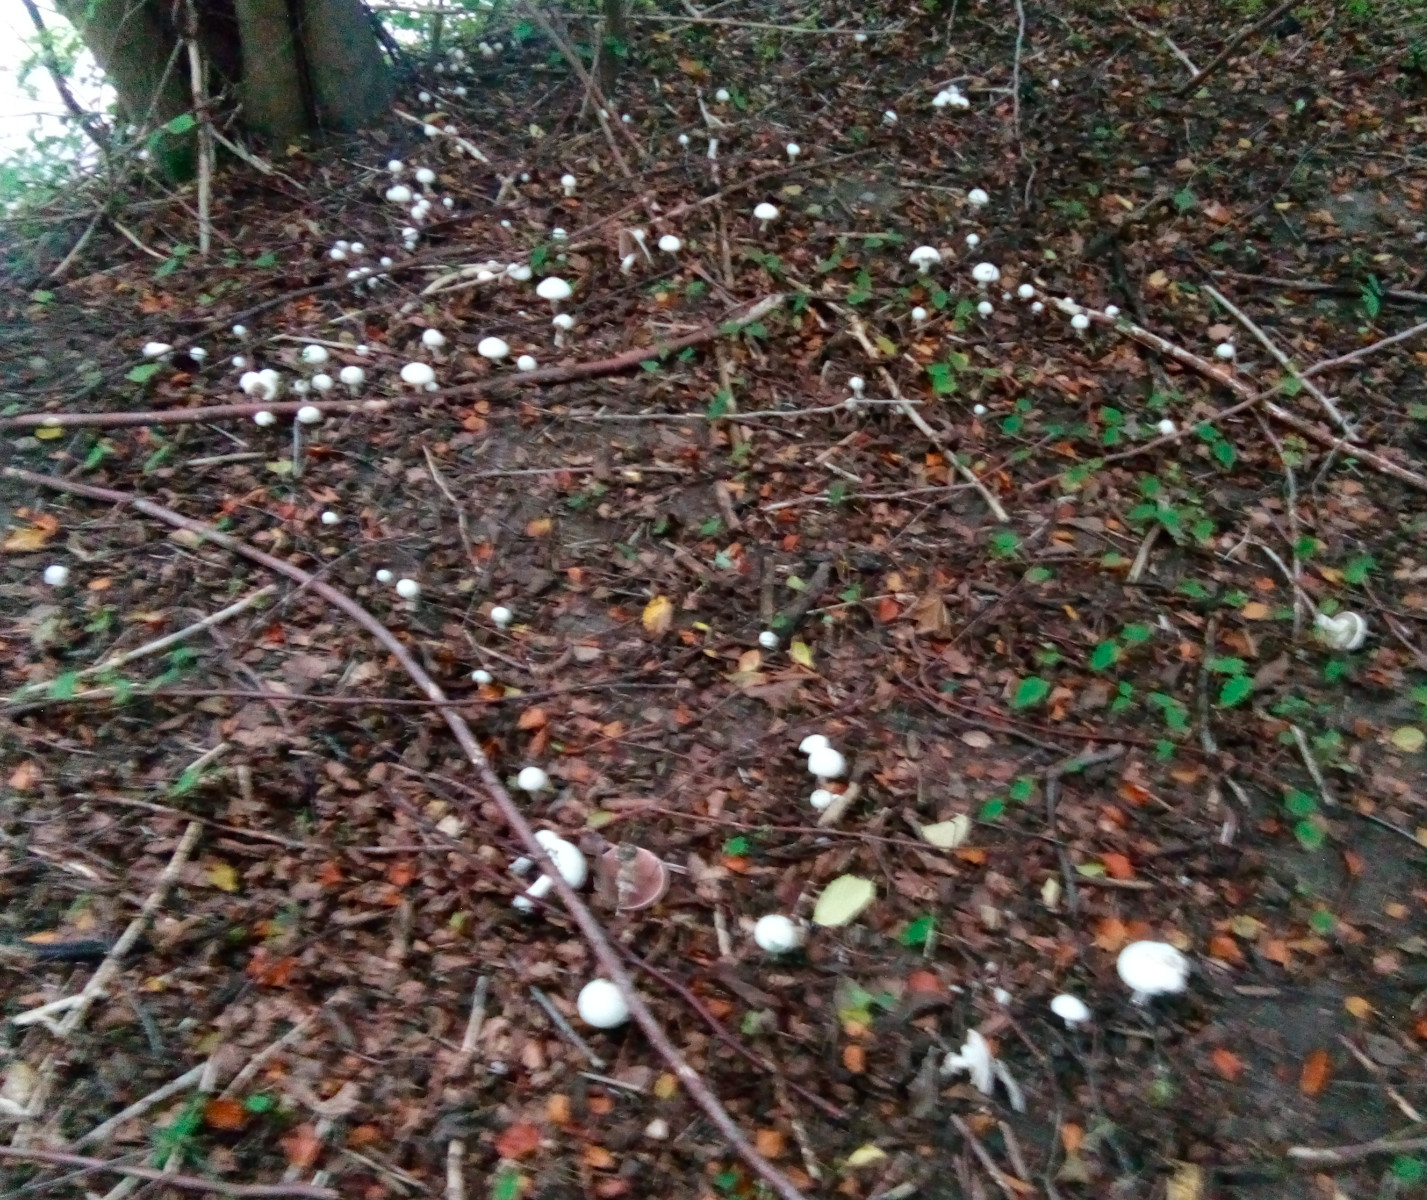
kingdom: Fungi
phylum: Basidiomycota
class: Agaricomycetes
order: Agaricales
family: Agaricaceae
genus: Agaricus
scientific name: Agaricus xanthodermus
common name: karbol-champignon
